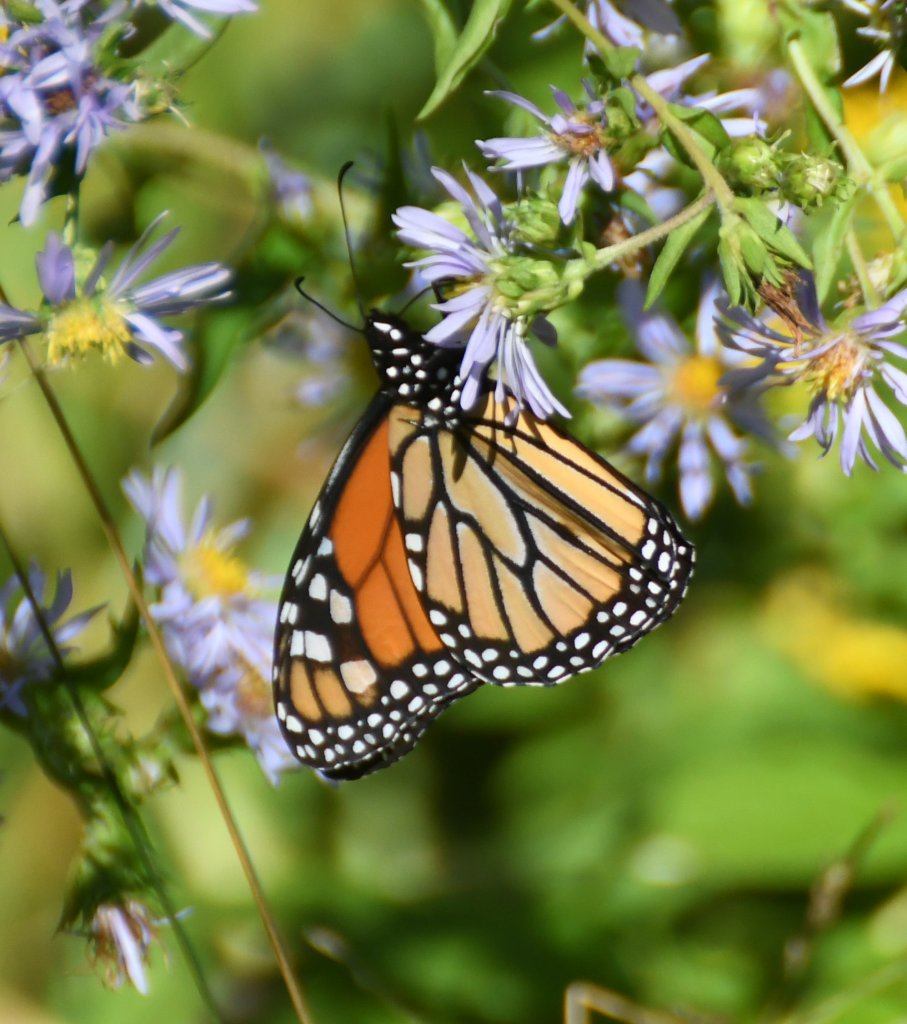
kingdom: Animalia
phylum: Arthropoda
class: Insecta
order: Lepidoptera
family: Nymphalidae
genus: Danaus
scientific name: Danaus plexippus
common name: Monarch
